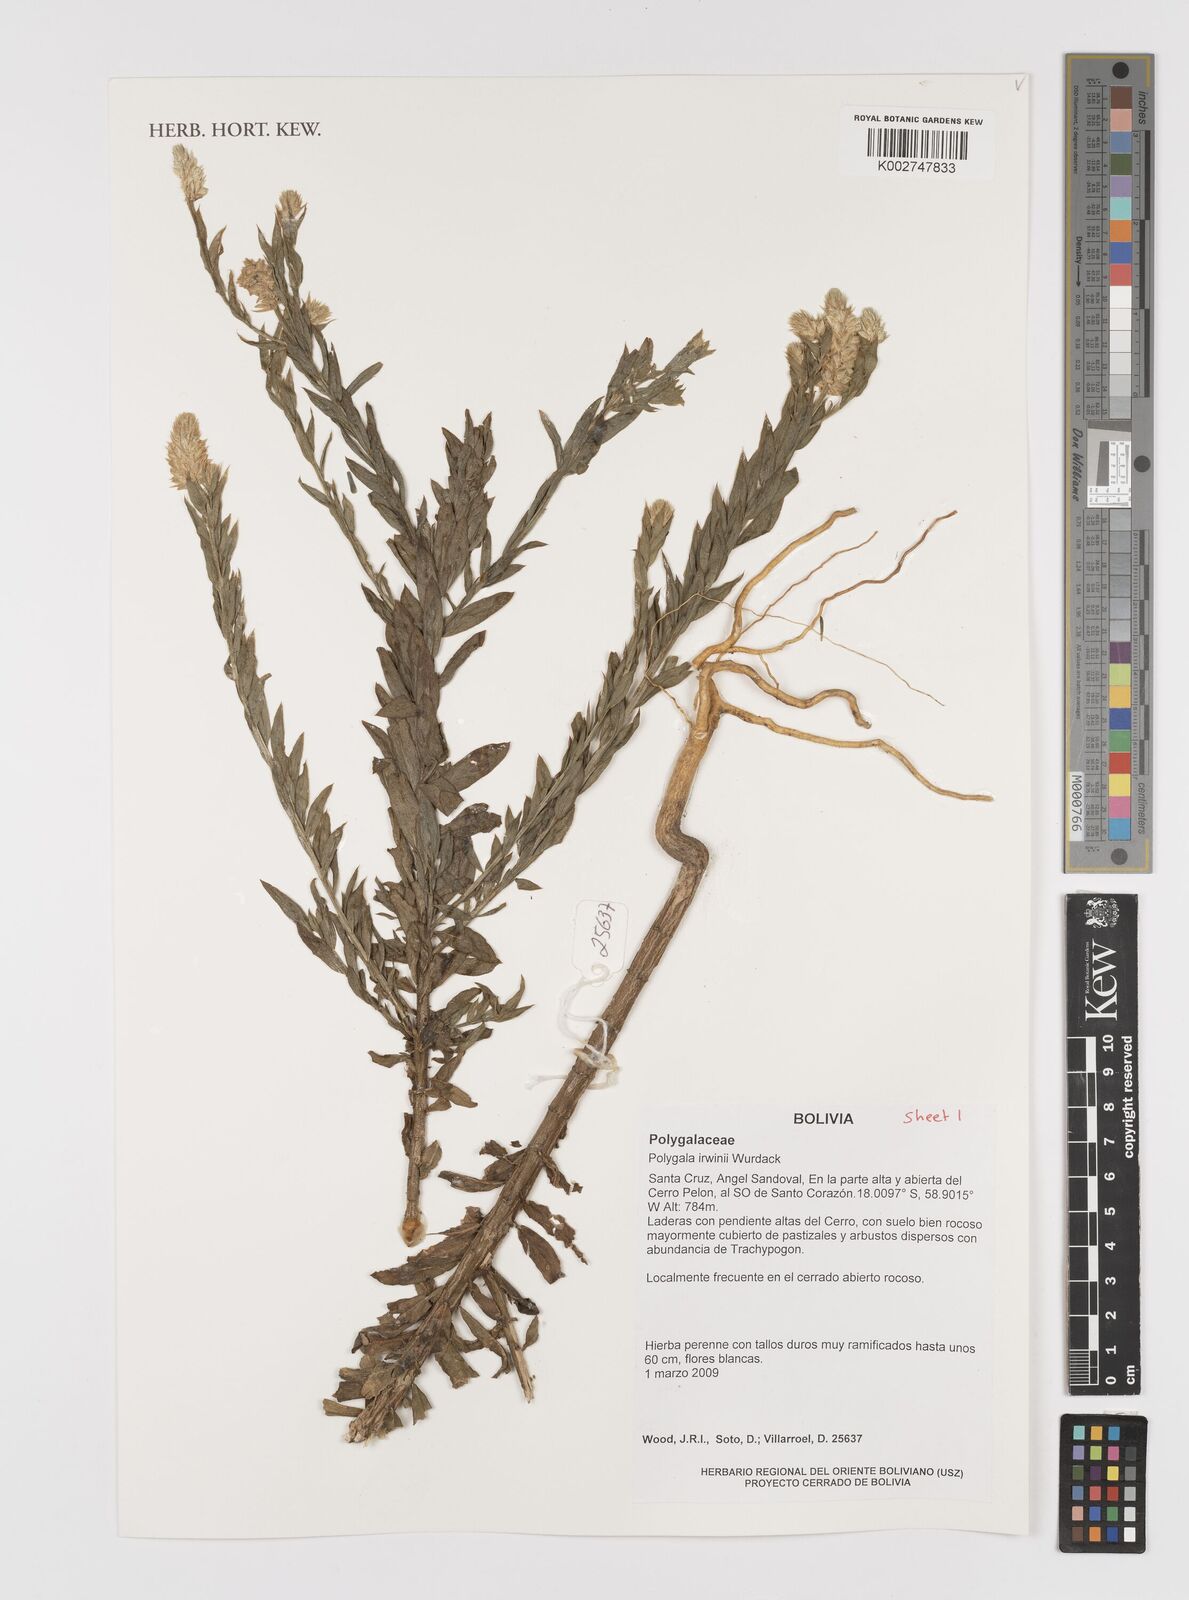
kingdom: Plantae
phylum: Tracheophyta
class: Magnoliopsida
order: Fabales
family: Polygalaceae
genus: Polygala
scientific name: Polygala irwinii
